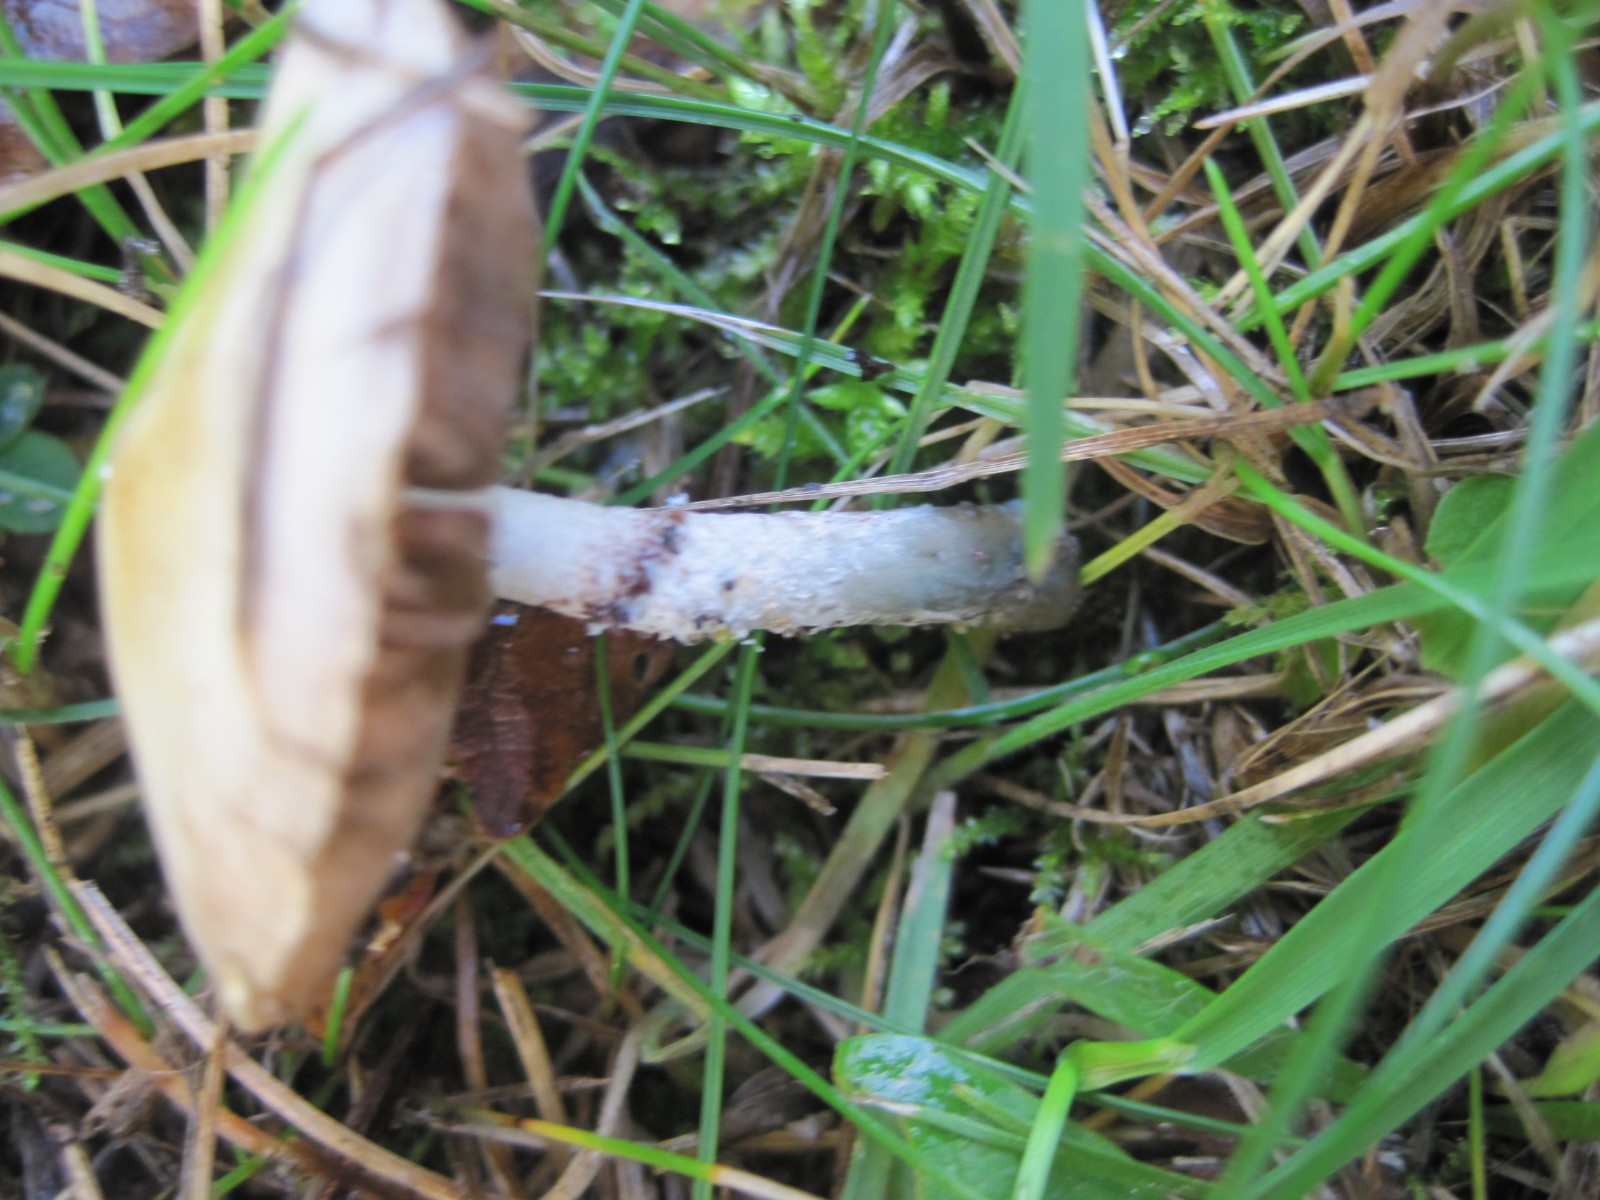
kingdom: Fungi
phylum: Basidiomycota
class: Agaricomycetes
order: Agaricales
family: Hymenogastraceae
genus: Psilocybe
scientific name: Psilocybe coronilla
